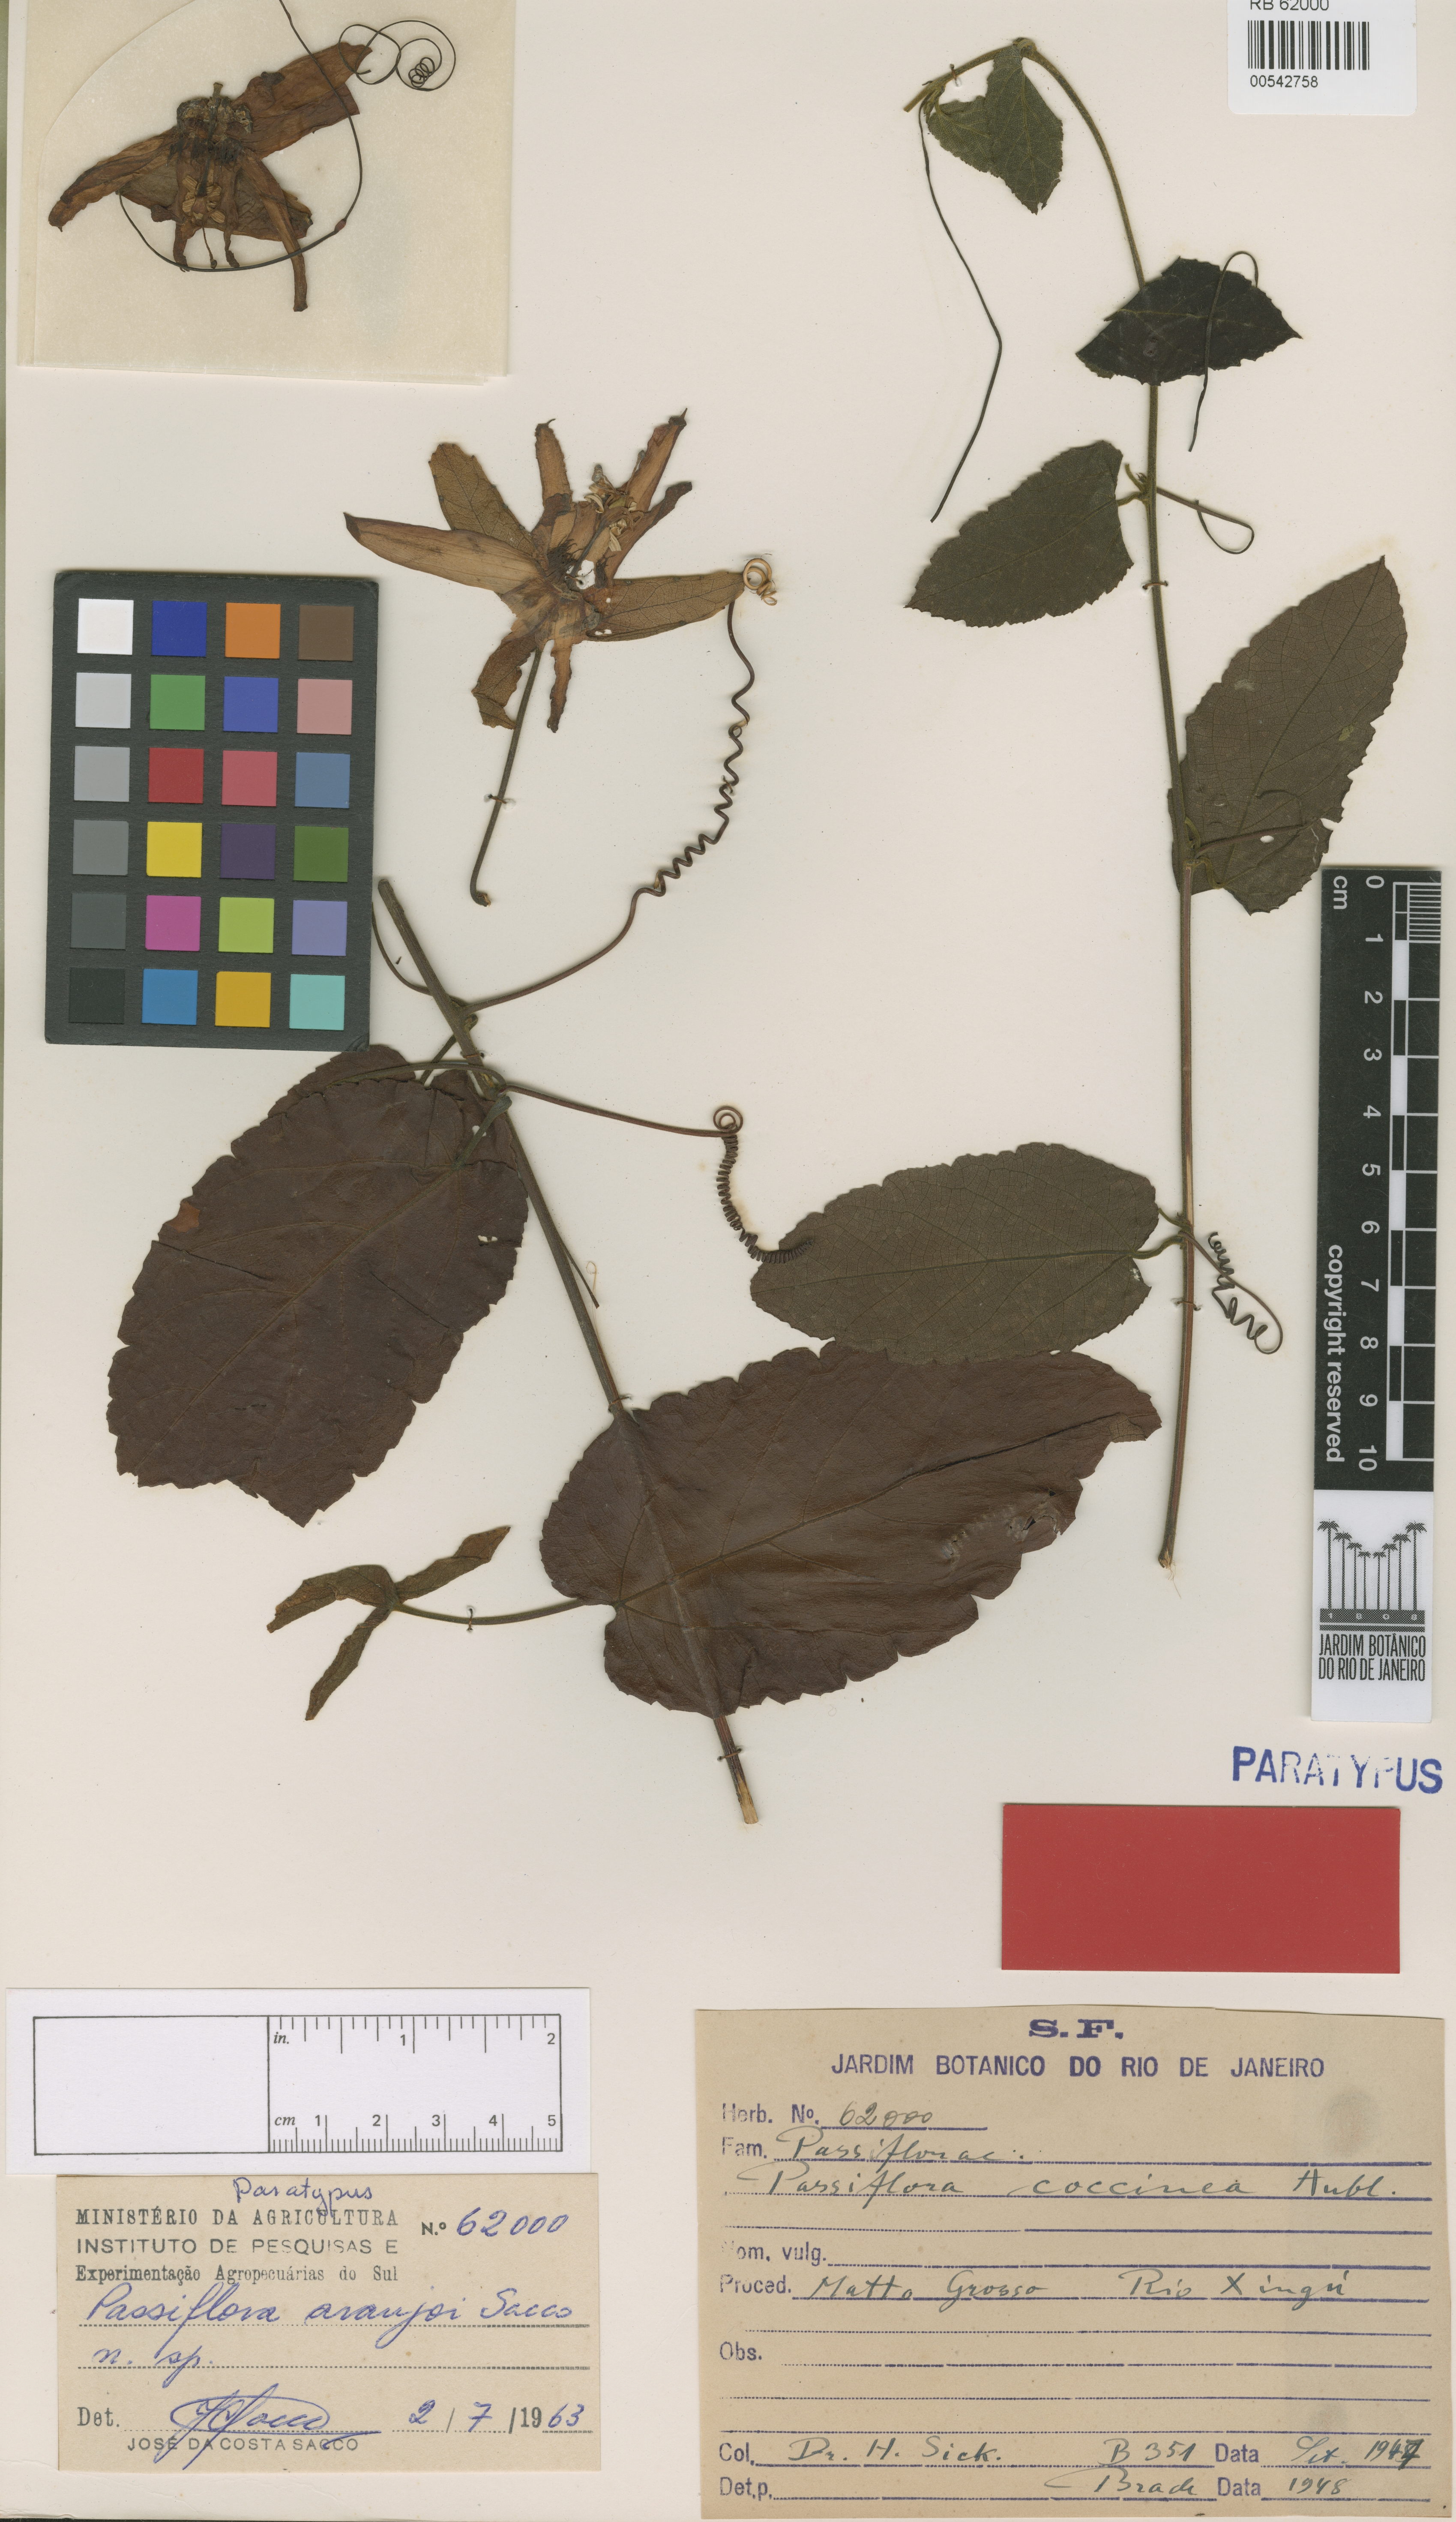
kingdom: Plantae
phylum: Tracheophyta
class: Magnoliopsida
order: Malpighiales
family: Passifloraceae
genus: Passiflora
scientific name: Passiflora araujoi
